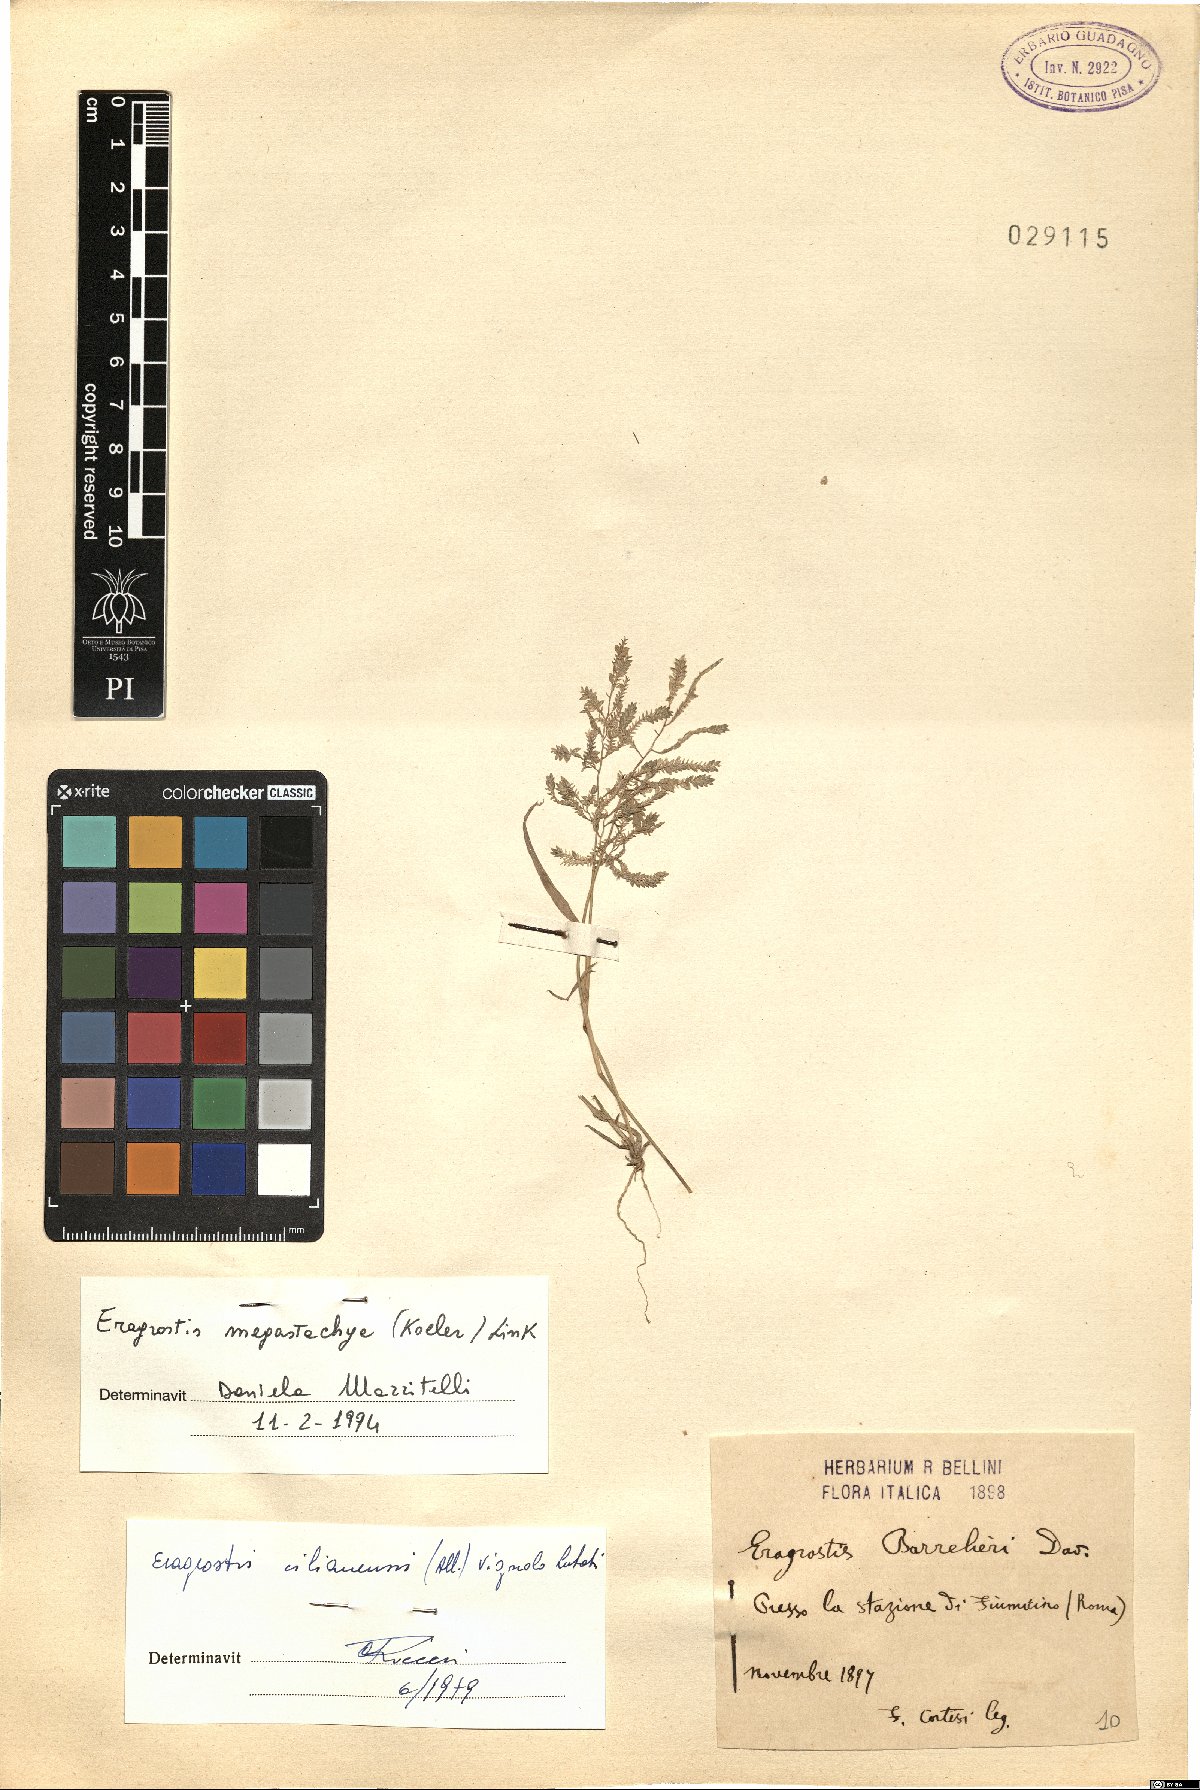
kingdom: Plantae
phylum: Tracheophyta
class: Liliopsida
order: Poales
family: Poaceae
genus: Eragrostis
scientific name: Eragrostis cilianensis
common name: Stinkgrass
